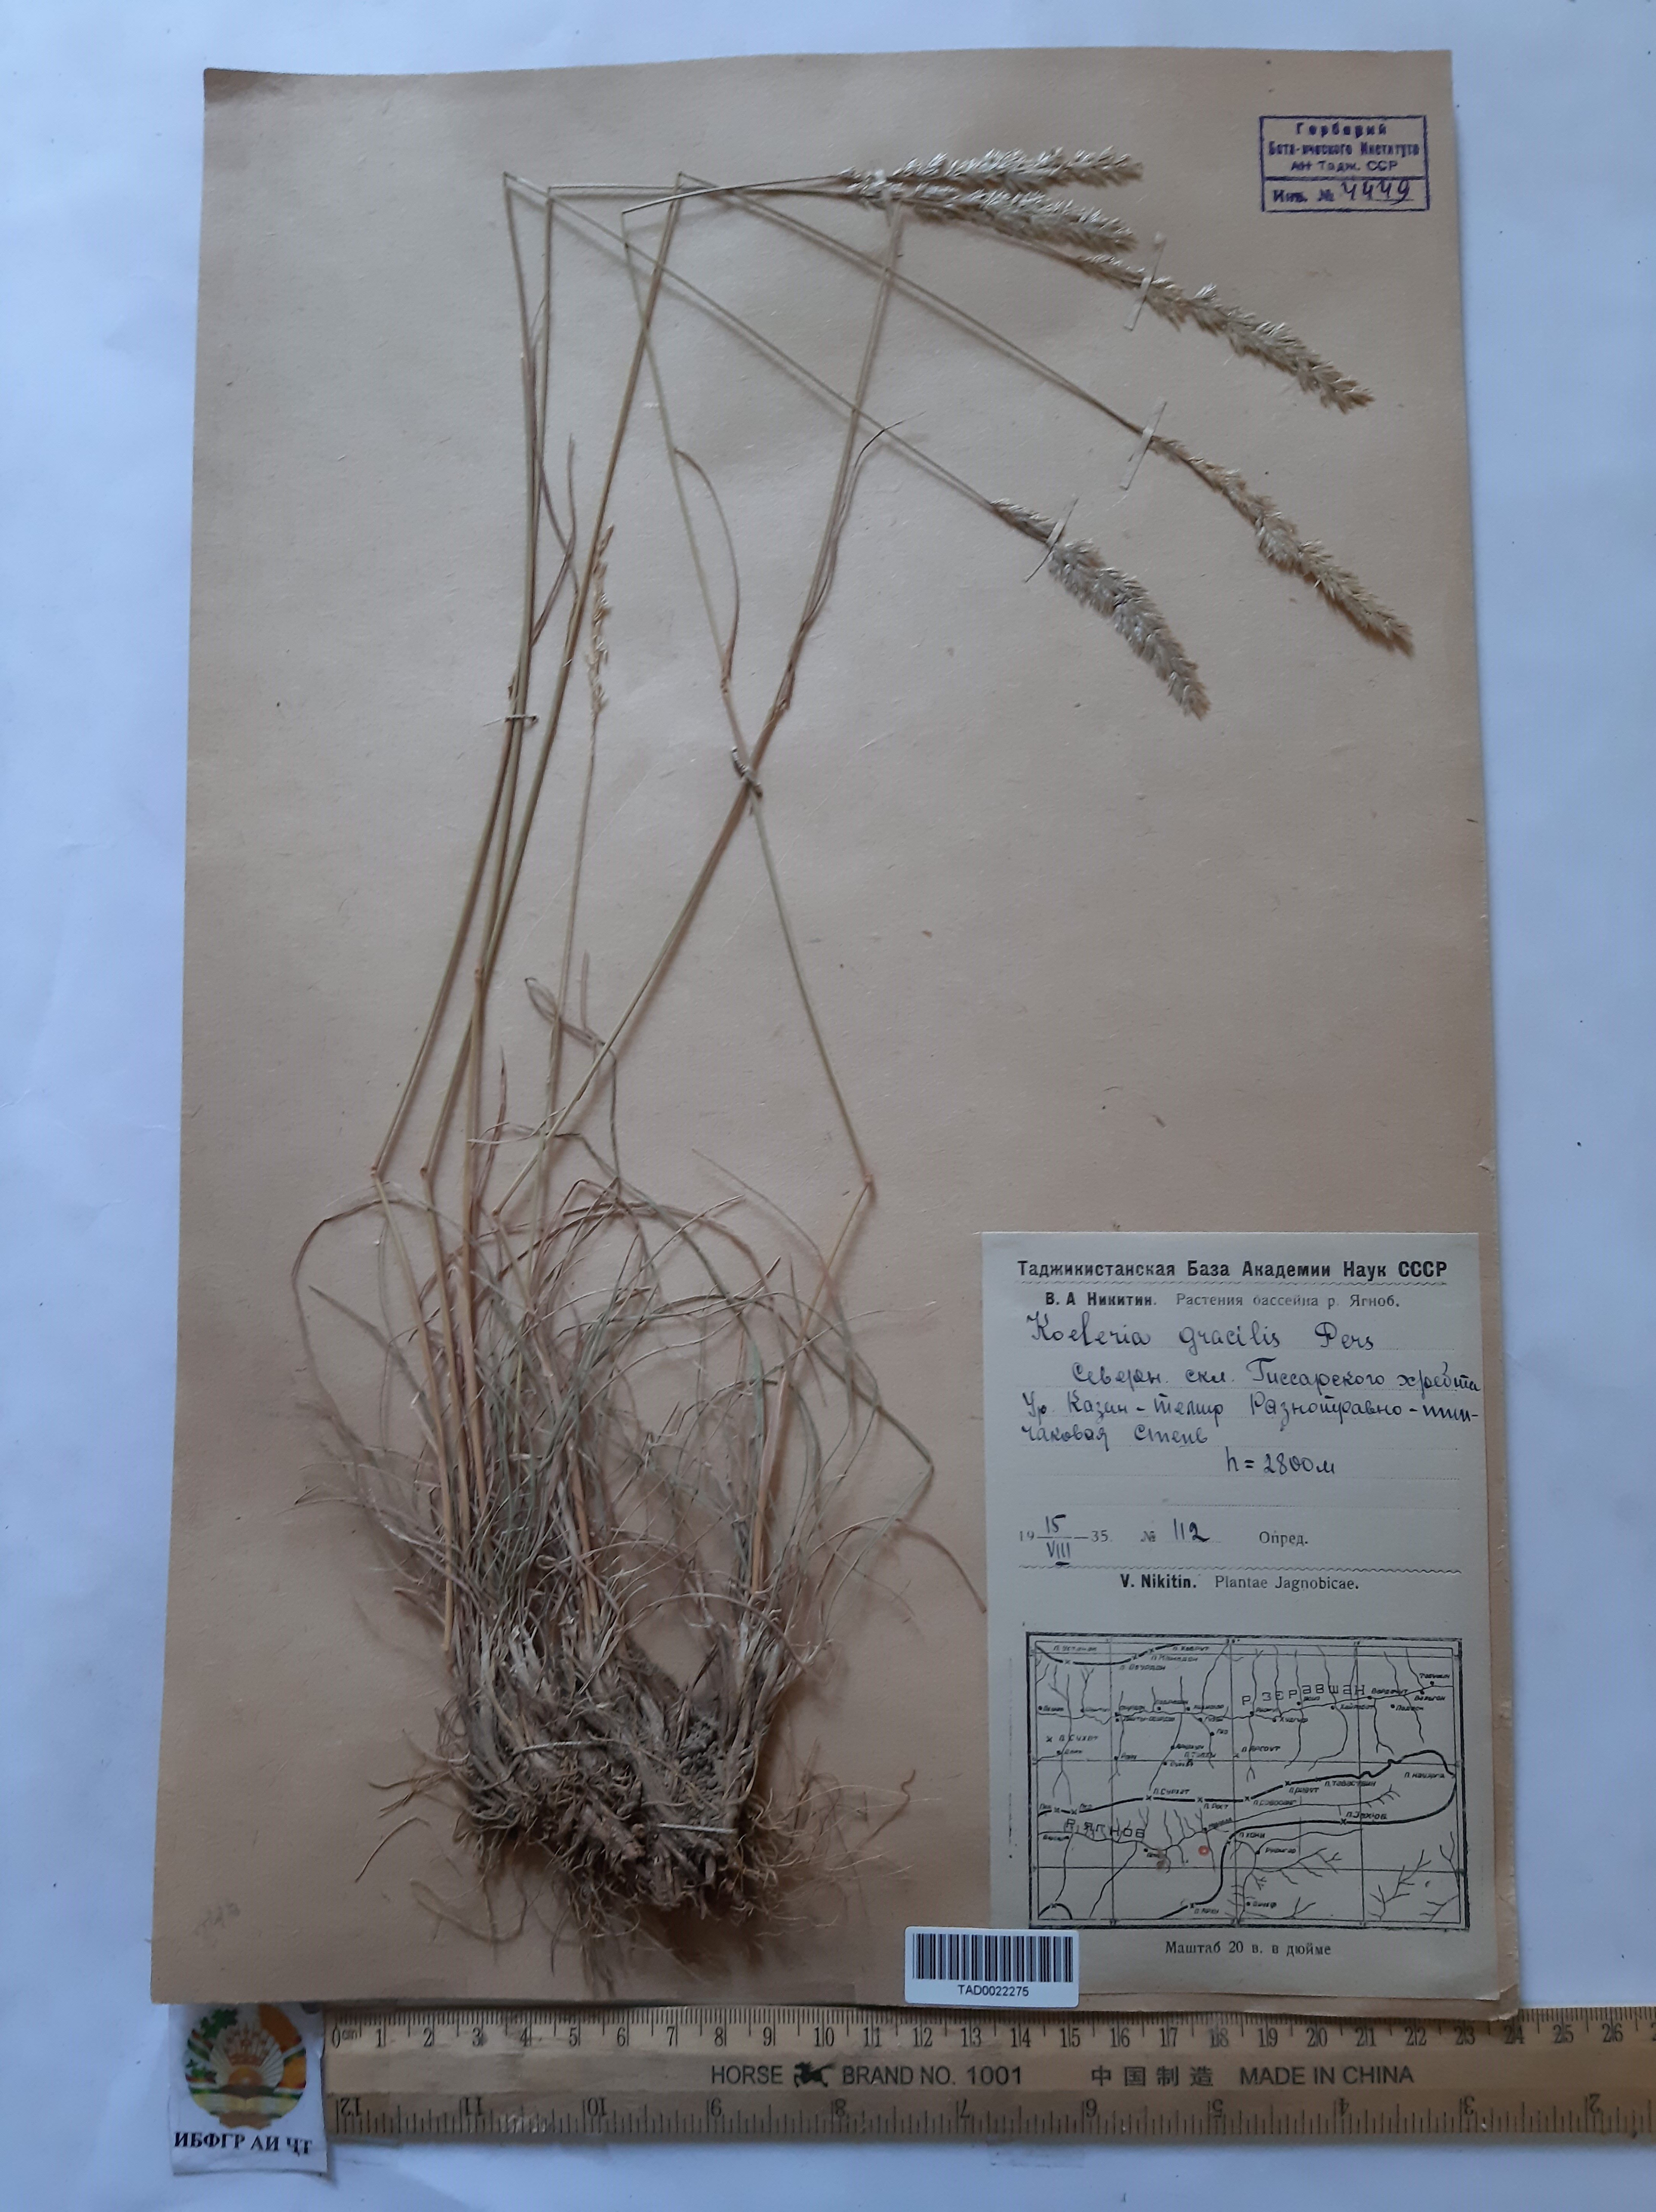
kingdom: Plantae
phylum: Tracheophyta
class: Liliopsida
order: Poales
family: Poaceae
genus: Koeleria
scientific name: Koeleria macrantha
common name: Crested hair-grass
